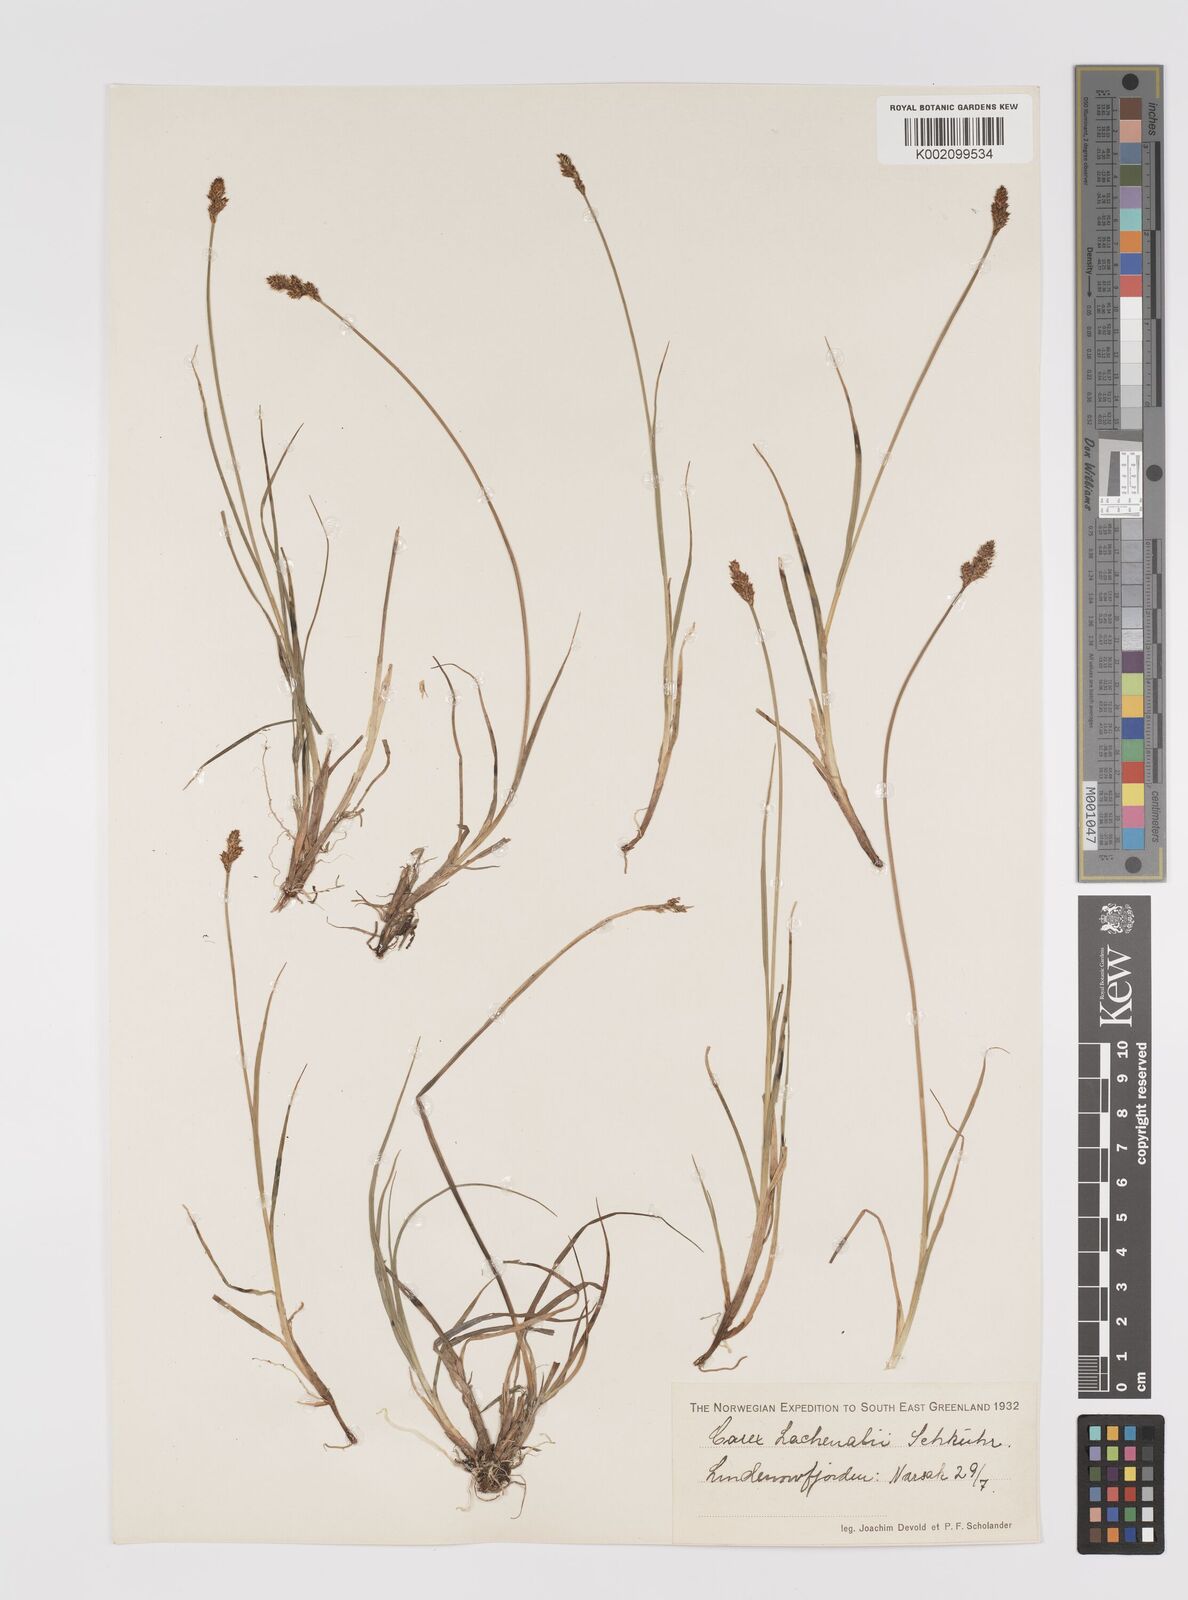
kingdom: Plantae
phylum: Tracheophyta
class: Liliopsida
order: Poales
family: Cyperaceae
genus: Carex
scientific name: Carex lachenalii
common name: Hare's-foot sedge
